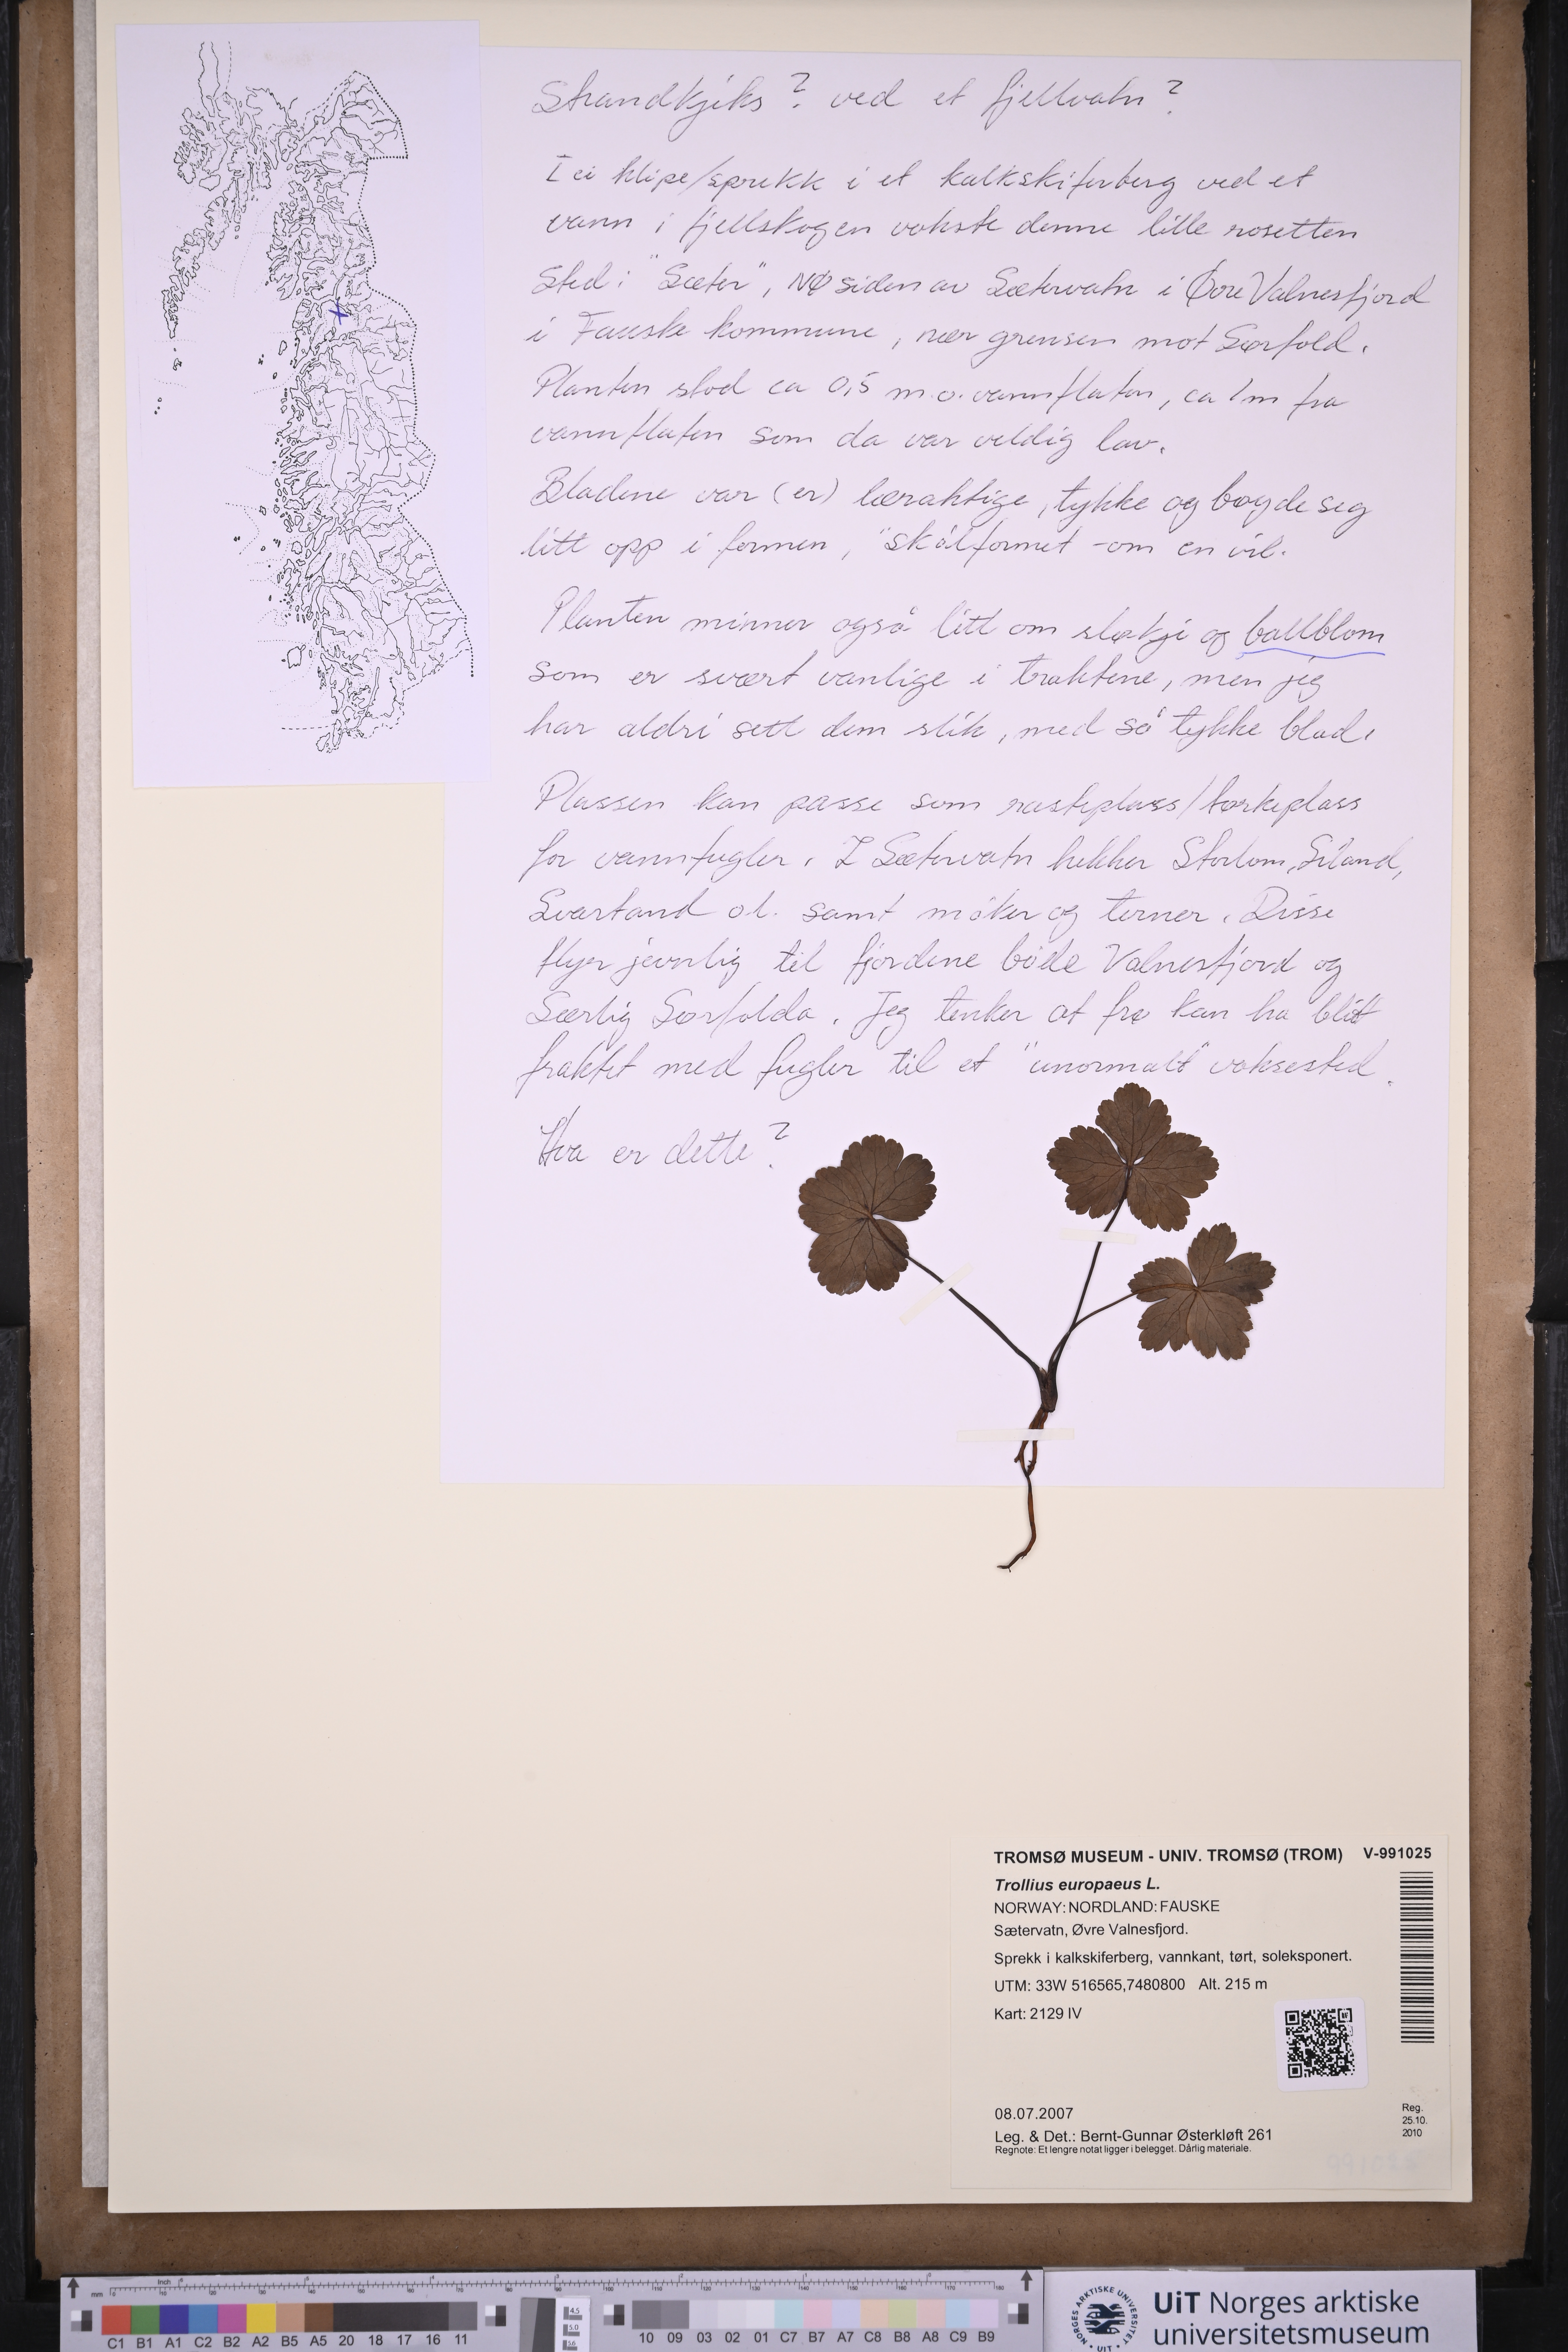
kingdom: Plantae
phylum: Tracheophyta
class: Magnoliopsida
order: Ranunculales
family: Ranunculaceae
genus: Trollius
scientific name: Trollius europaeus
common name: European globeflower
